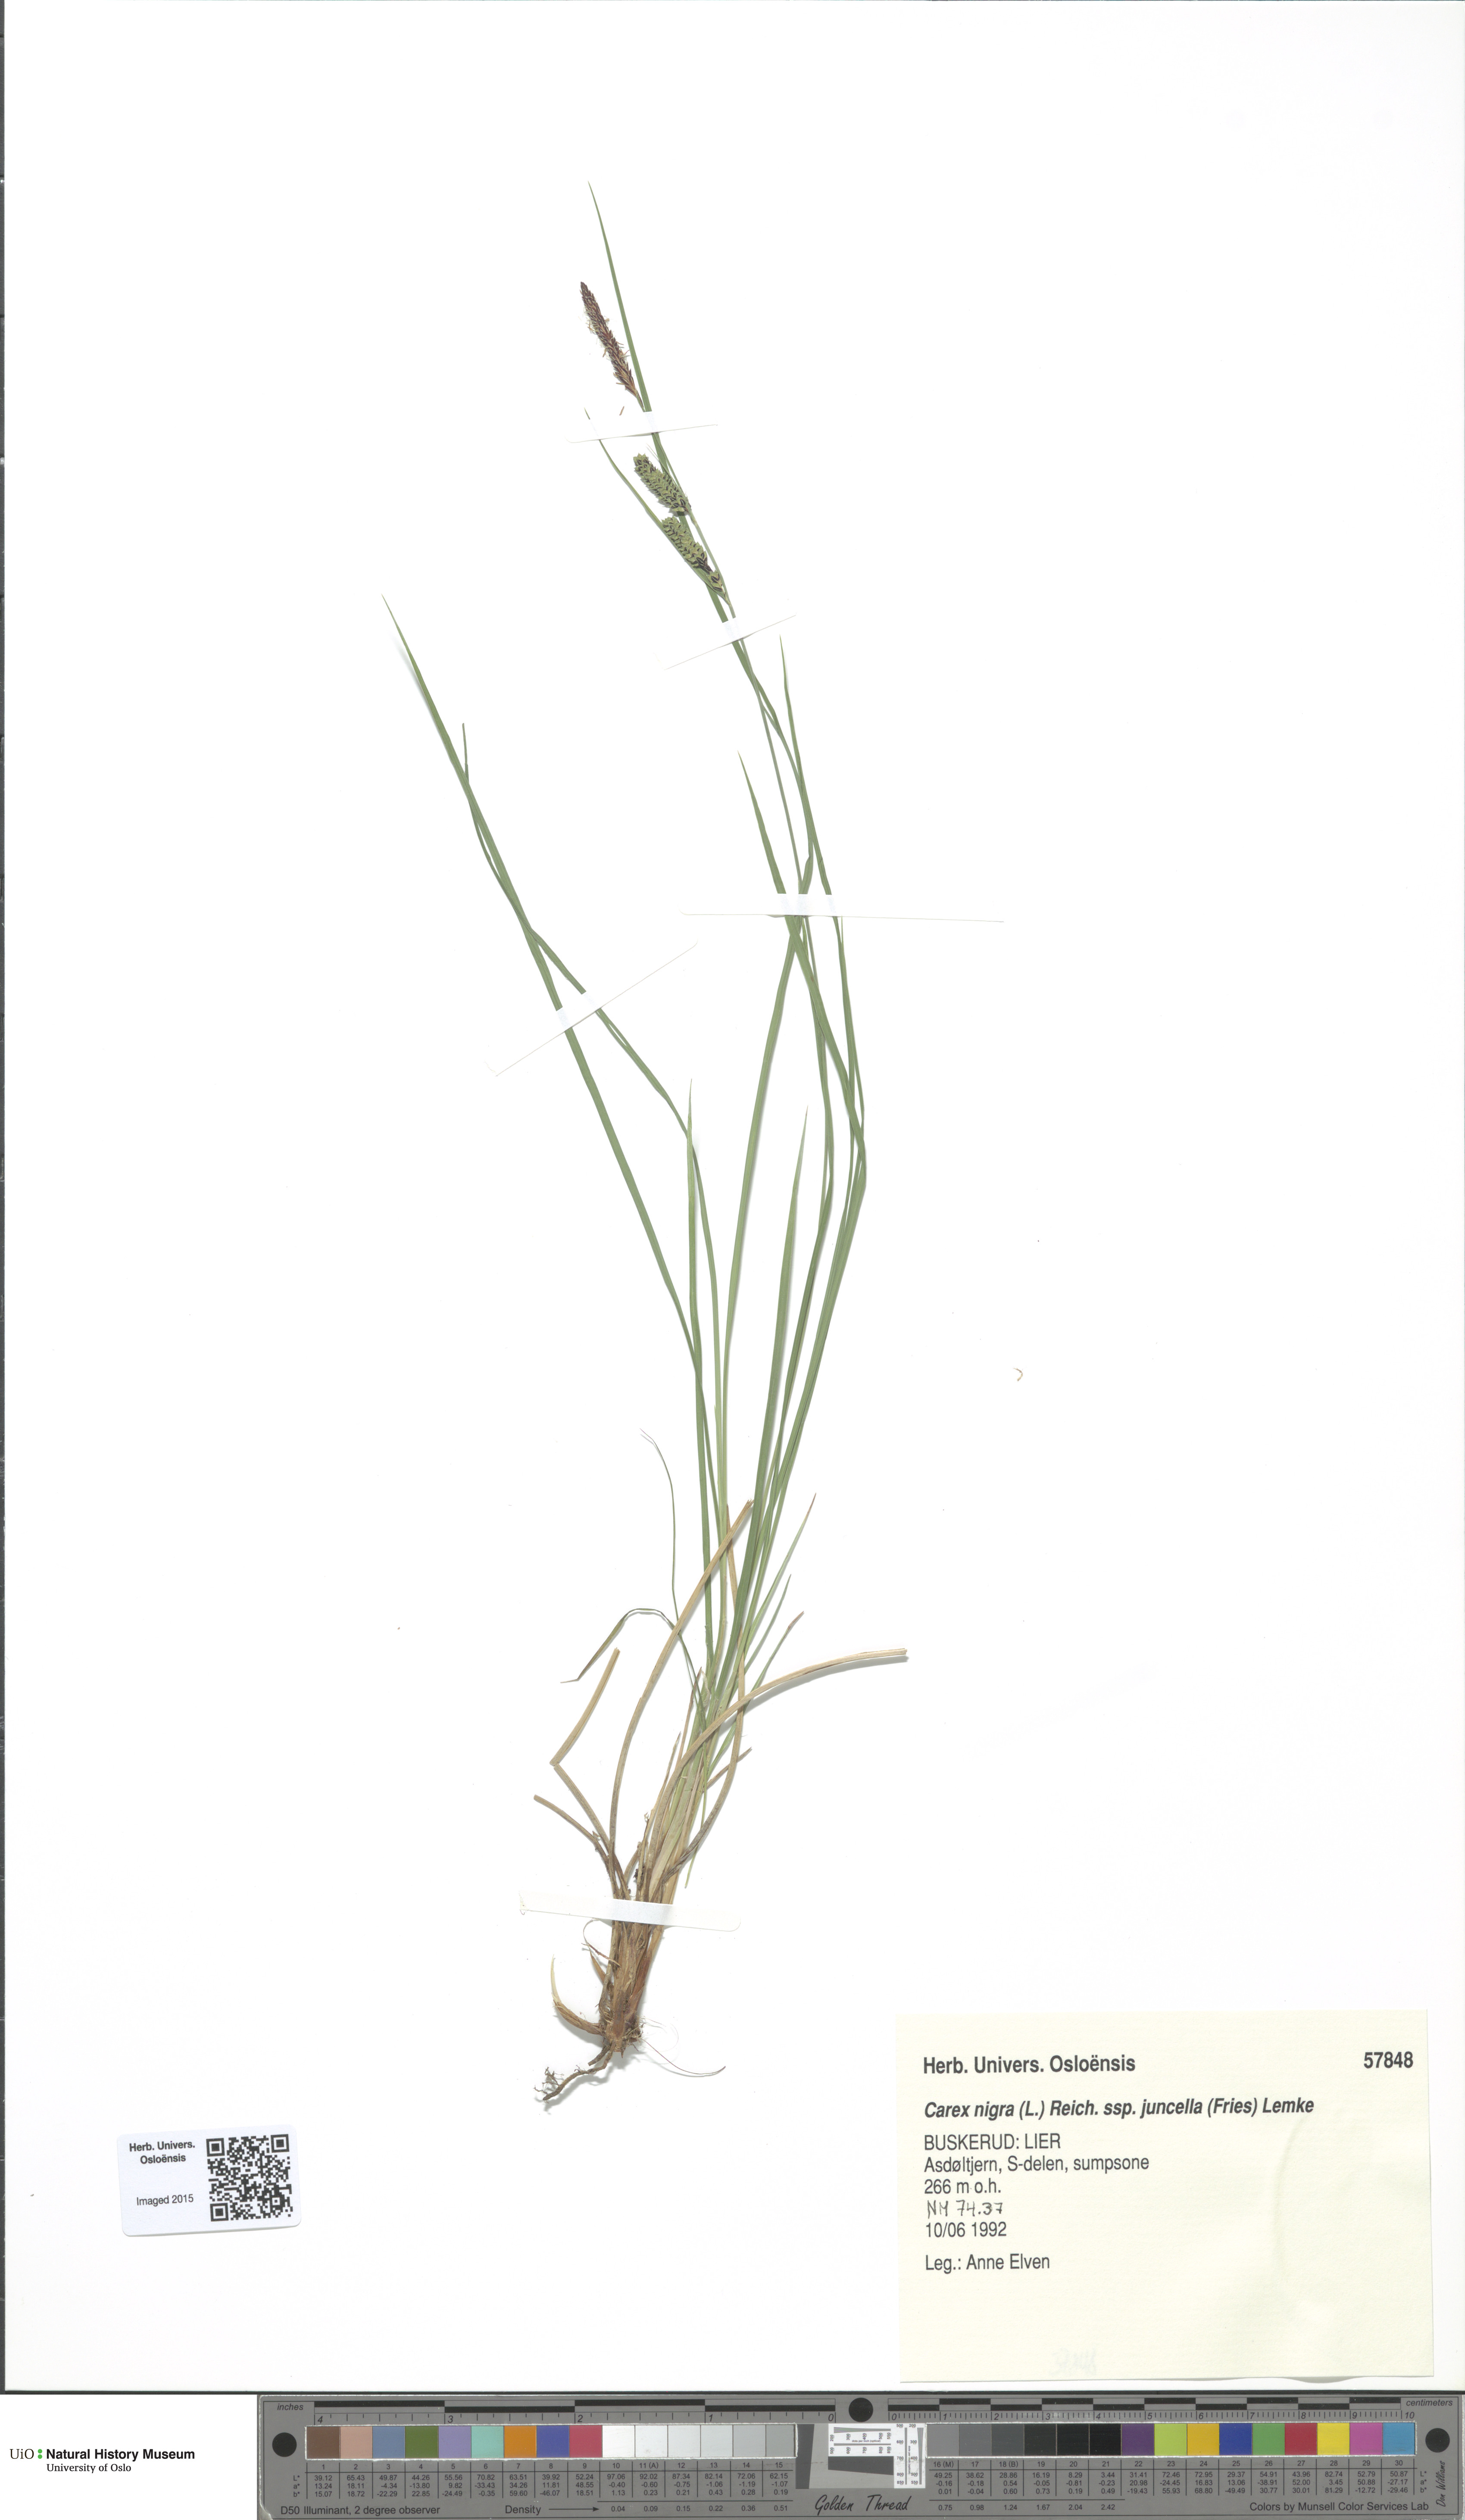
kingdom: Plantae
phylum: Tracheophyta
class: Liliopsida
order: Poales
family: Cyperaceae
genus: Carex
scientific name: Carex nigra
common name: Common sedge
